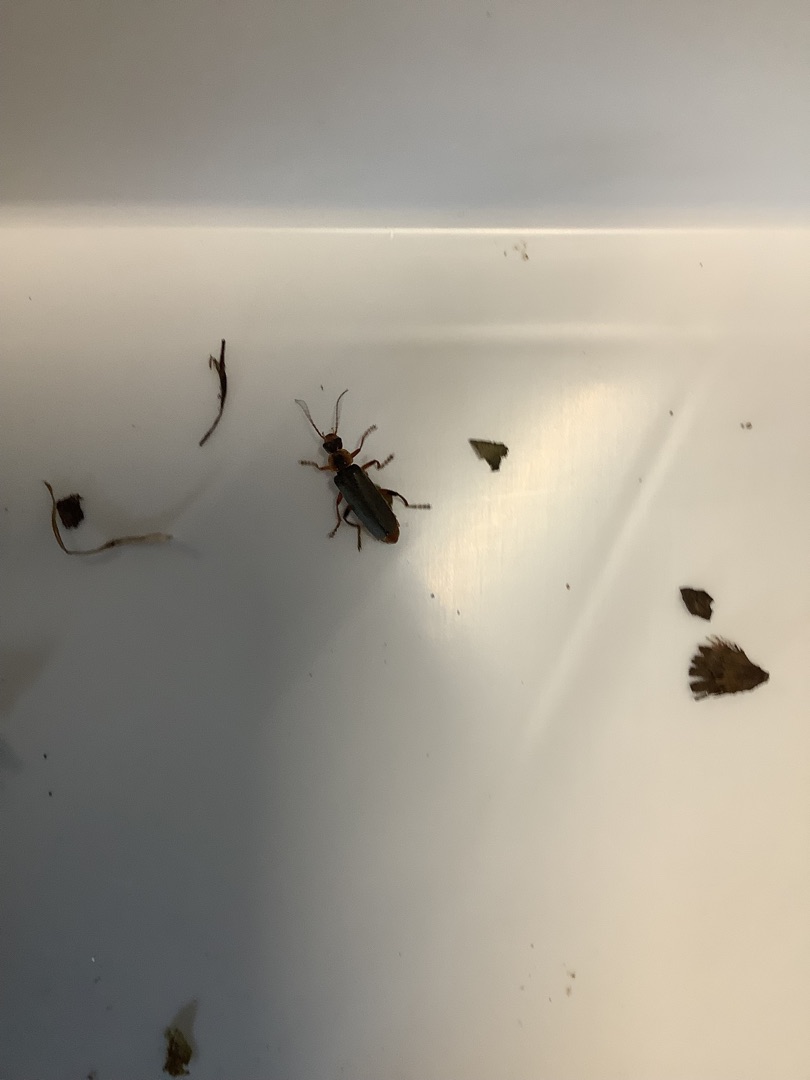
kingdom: Animalia
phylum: Arthropoda
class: Insecta
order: Coleoptera
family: Cantharidae
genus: Cantharis
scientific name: Cantharis nigricans
